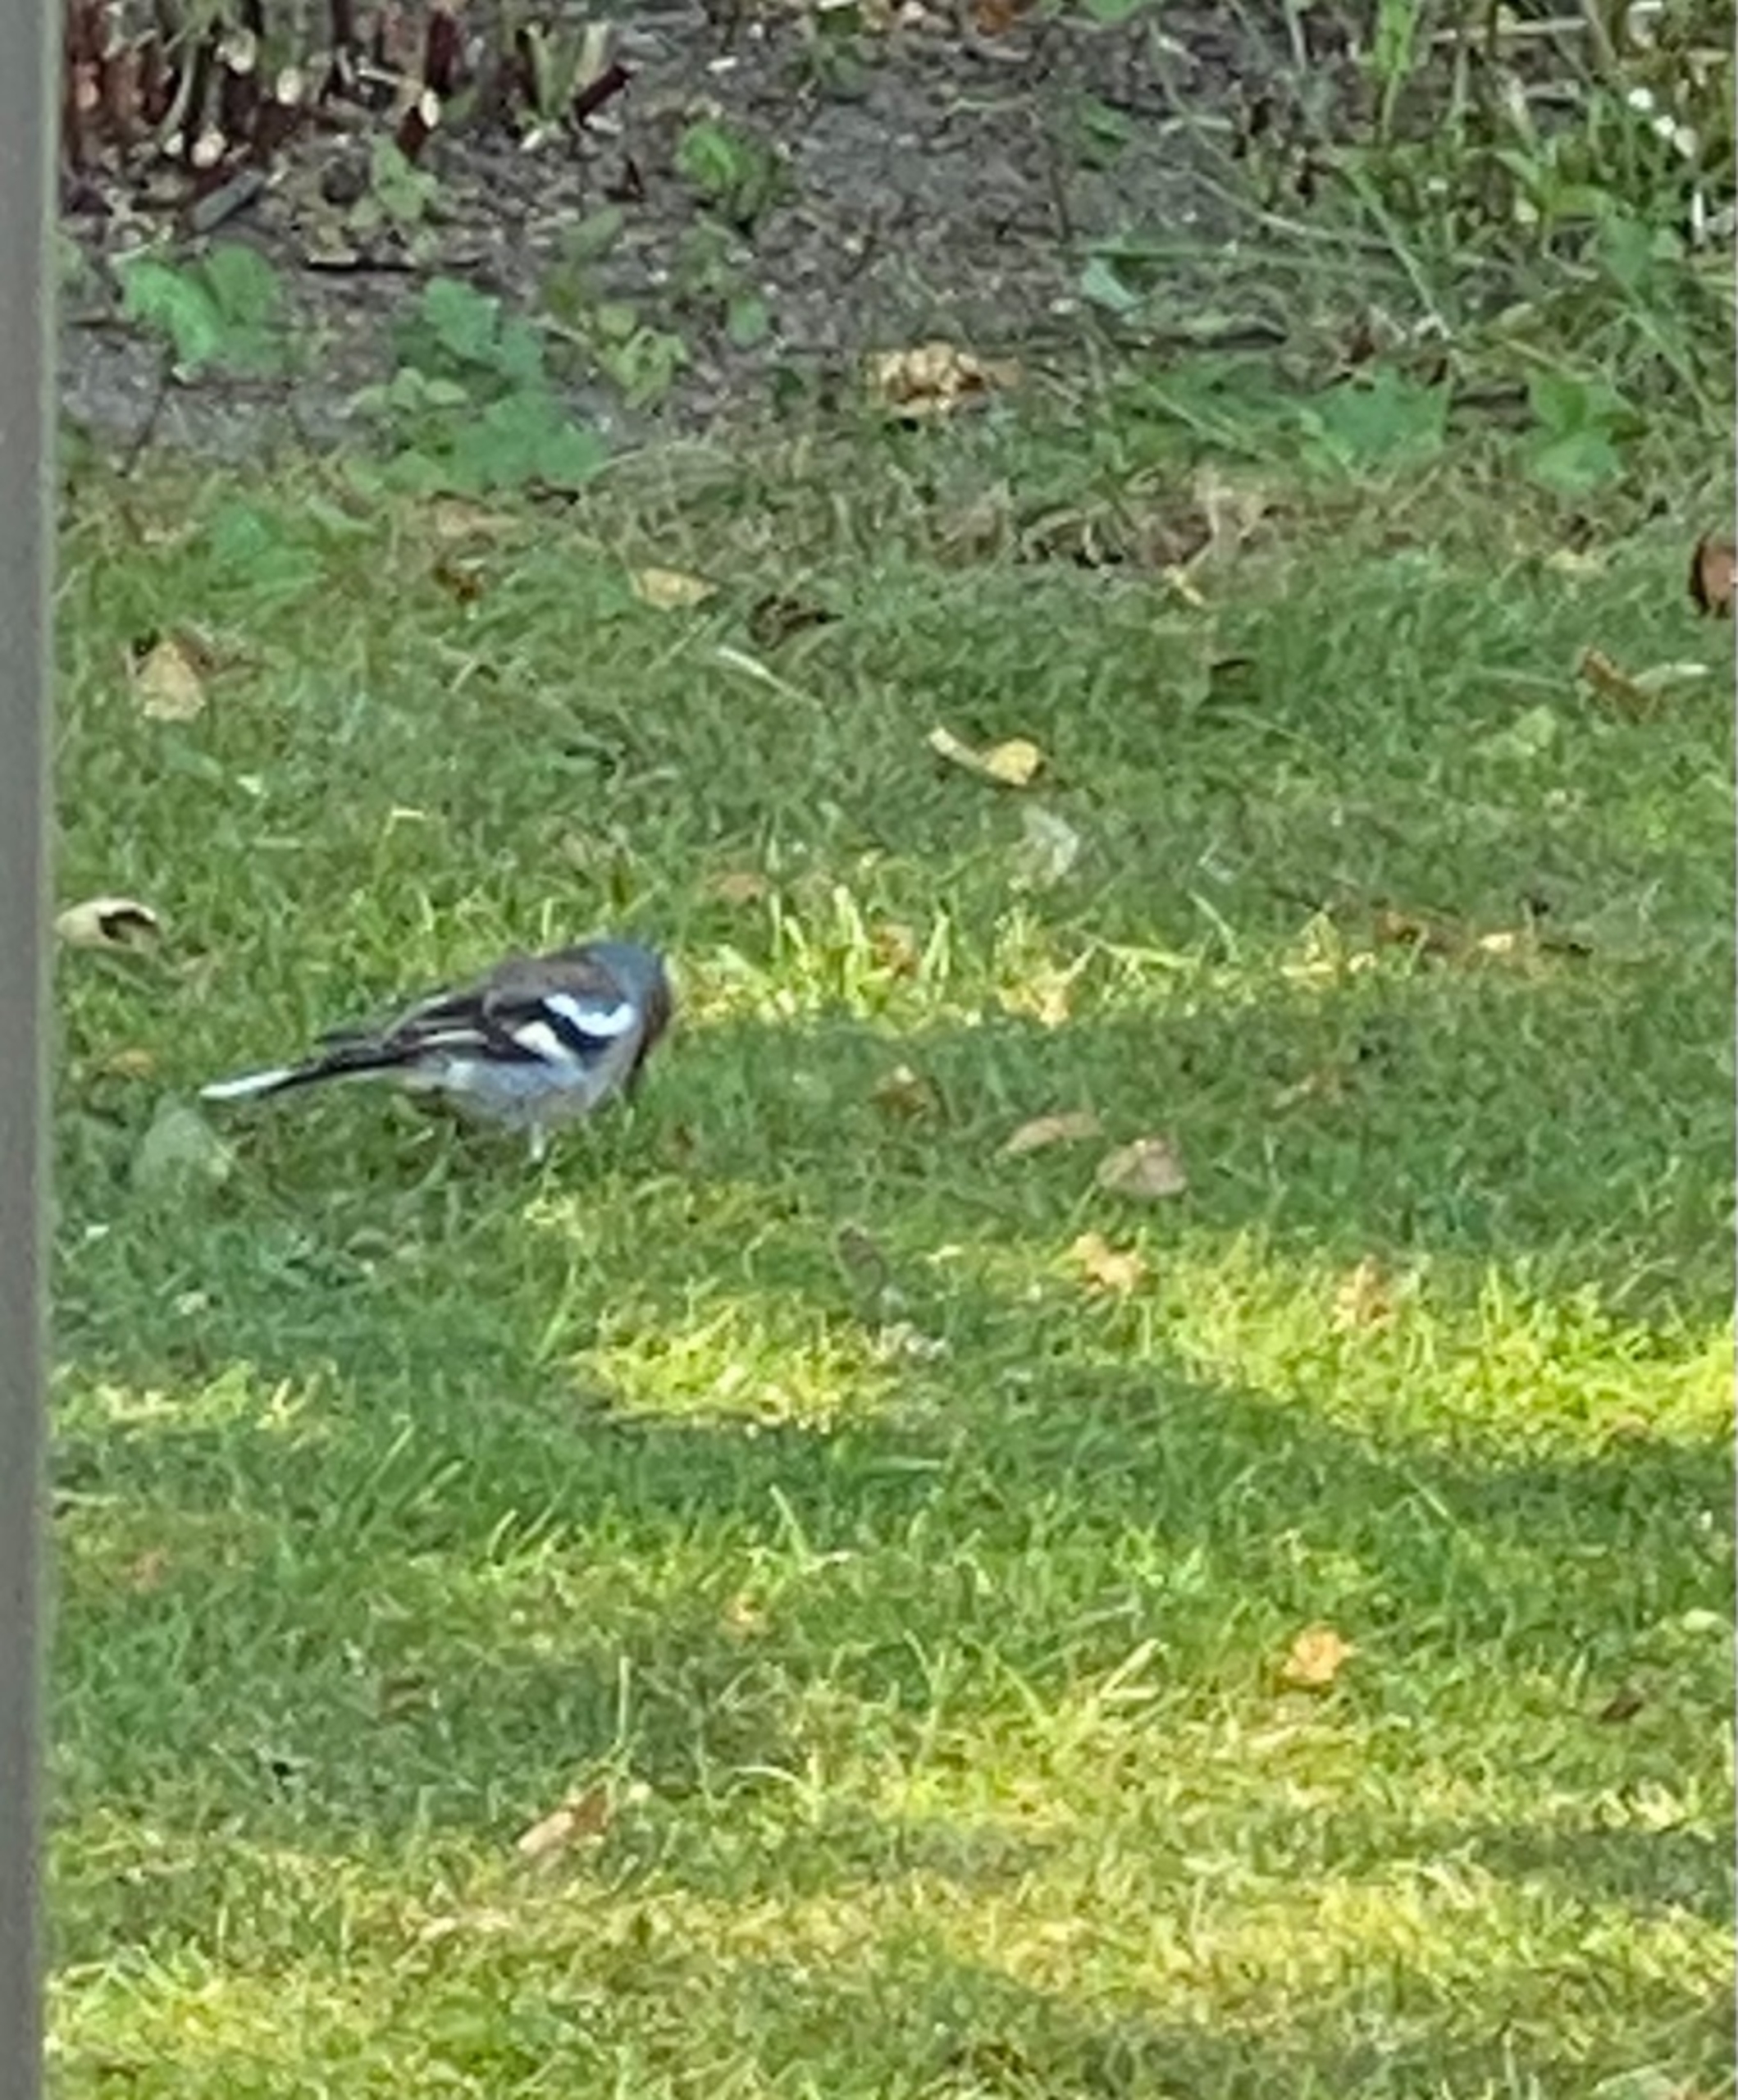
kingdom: Animalia
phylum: Chordata
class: Aves
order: Passeriformes
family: Fringillidae
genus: Fringilla
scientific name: Fringilla coelebs
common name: Bogfinke
